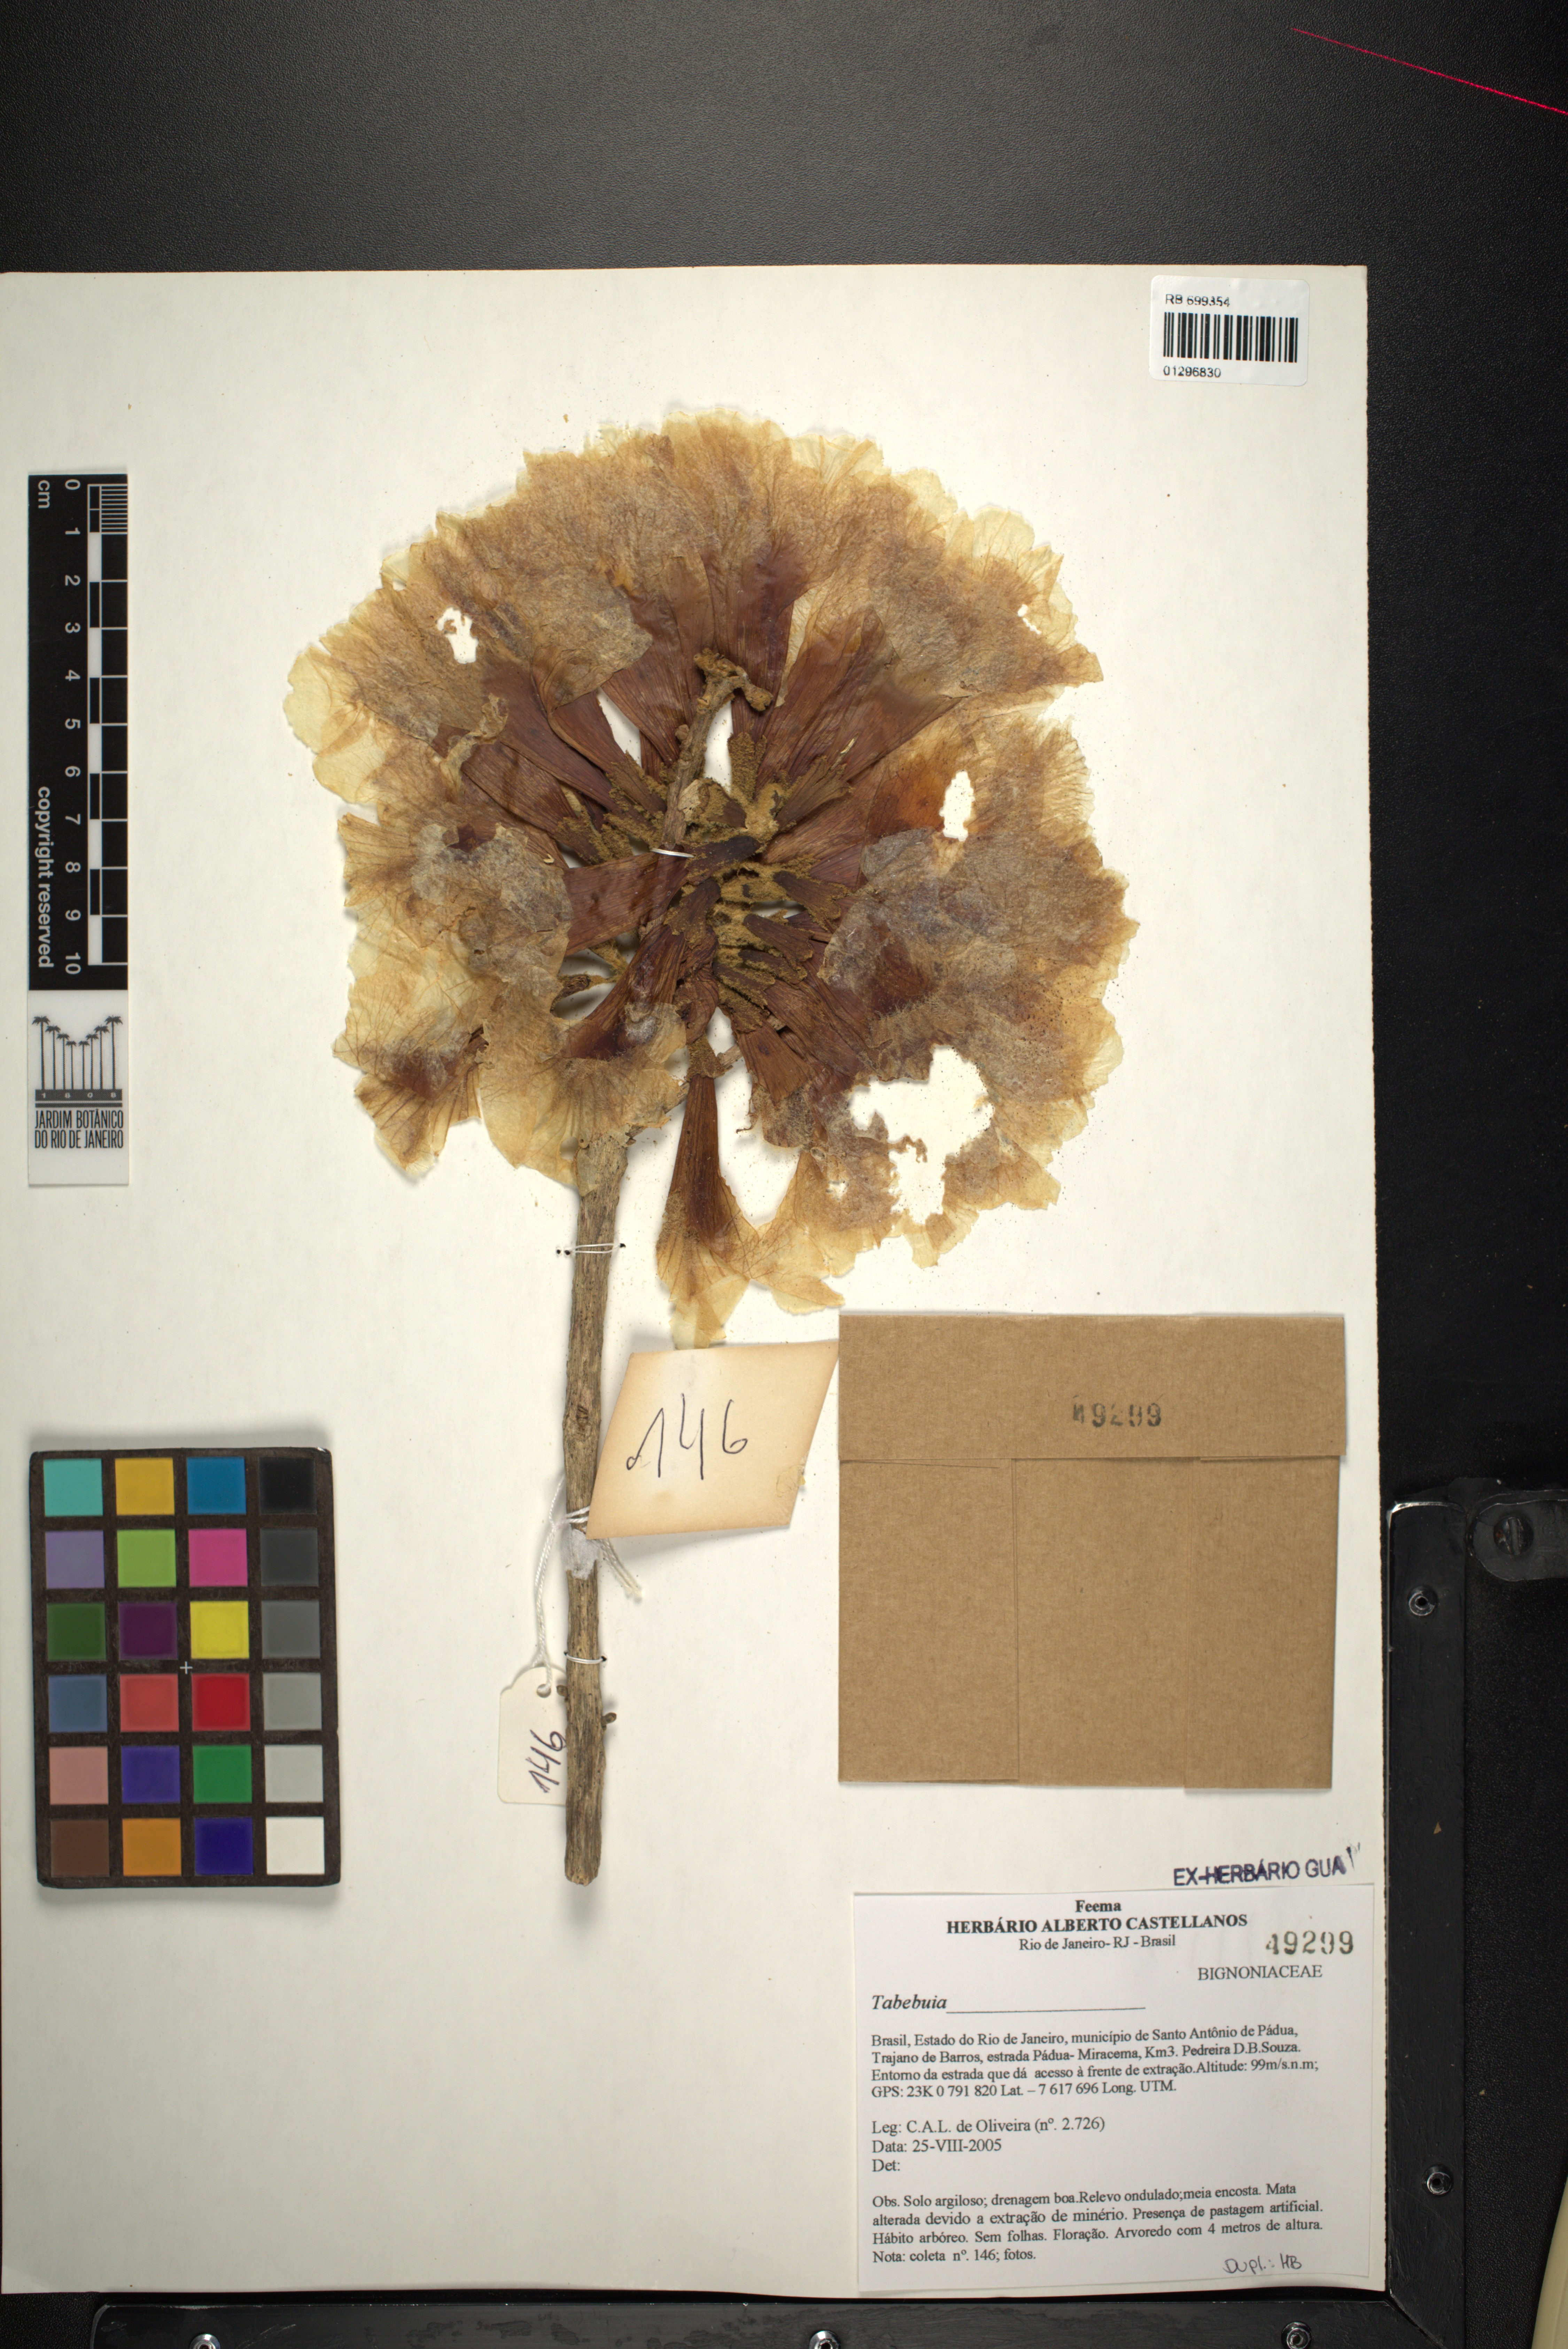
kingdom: Plantae
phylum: Tracheophyta
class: Magnoliopsida
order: Lamiales
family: Bignoniaceae
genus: Tabebuia
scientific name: Tabebuia
